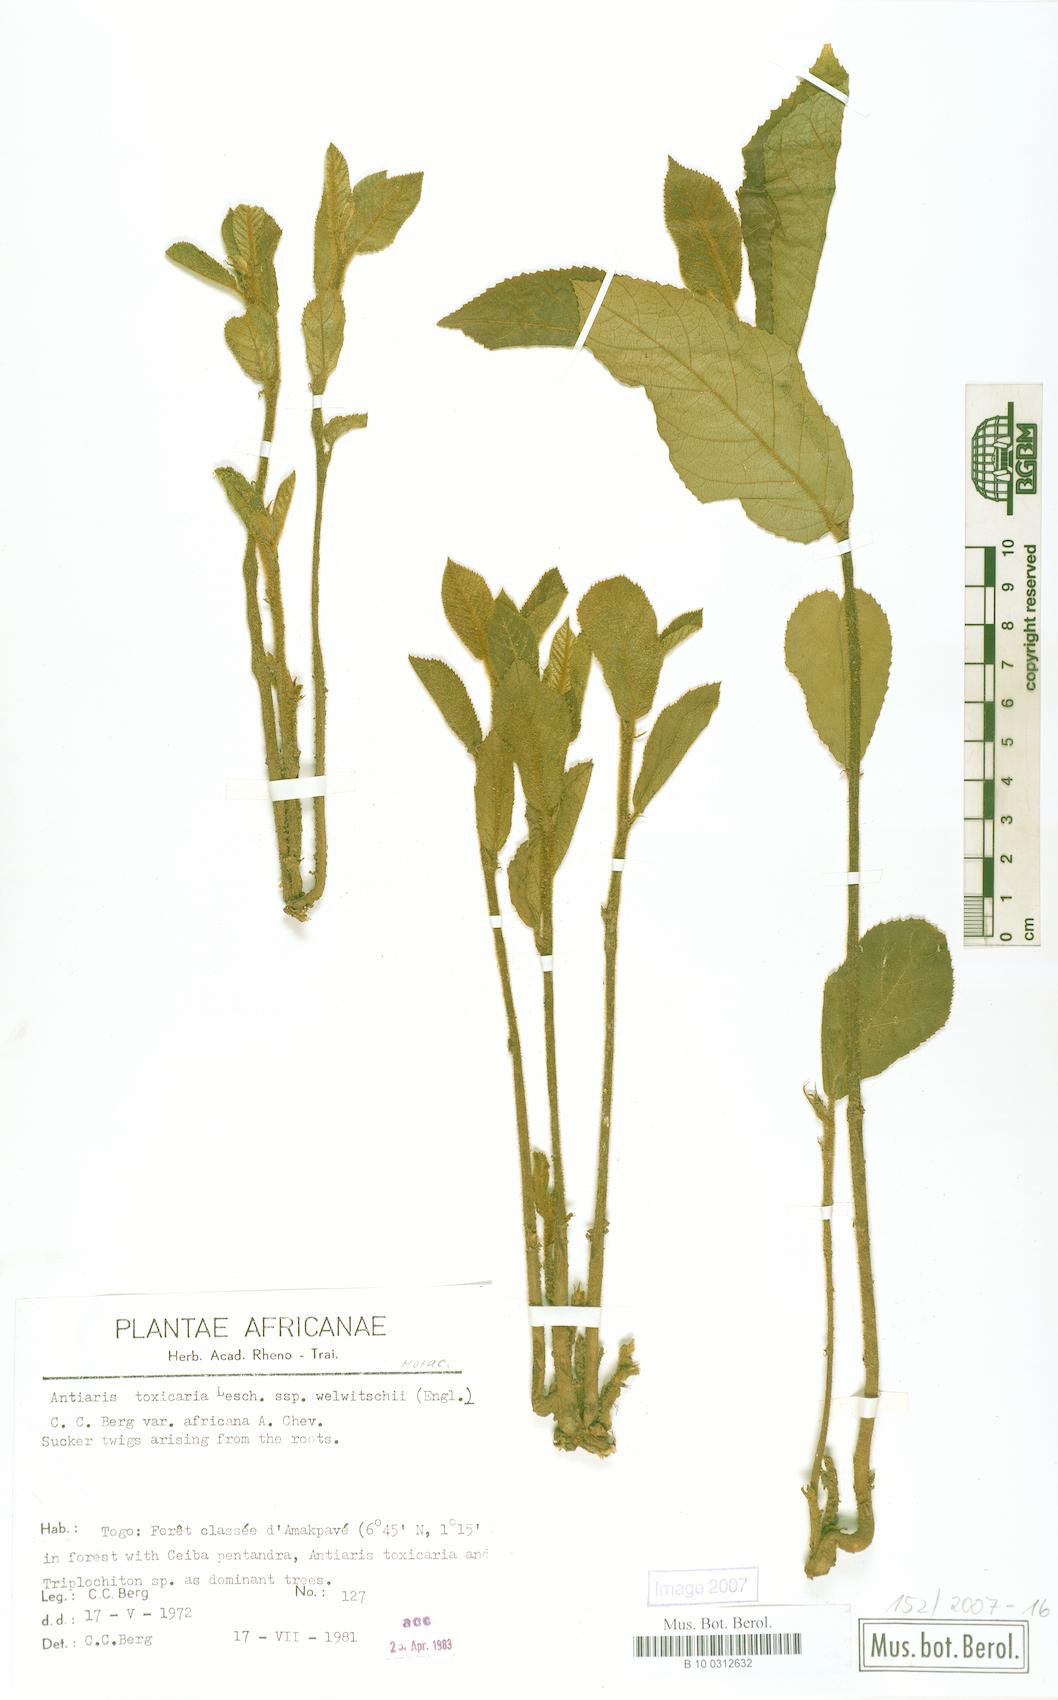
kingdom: Plantae
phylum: Tracheophyta
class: Magnoliopsida
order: Rosales
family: Moraceae
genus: Antiaris
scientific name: Antiaris toxicaria
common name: Sackingtree
